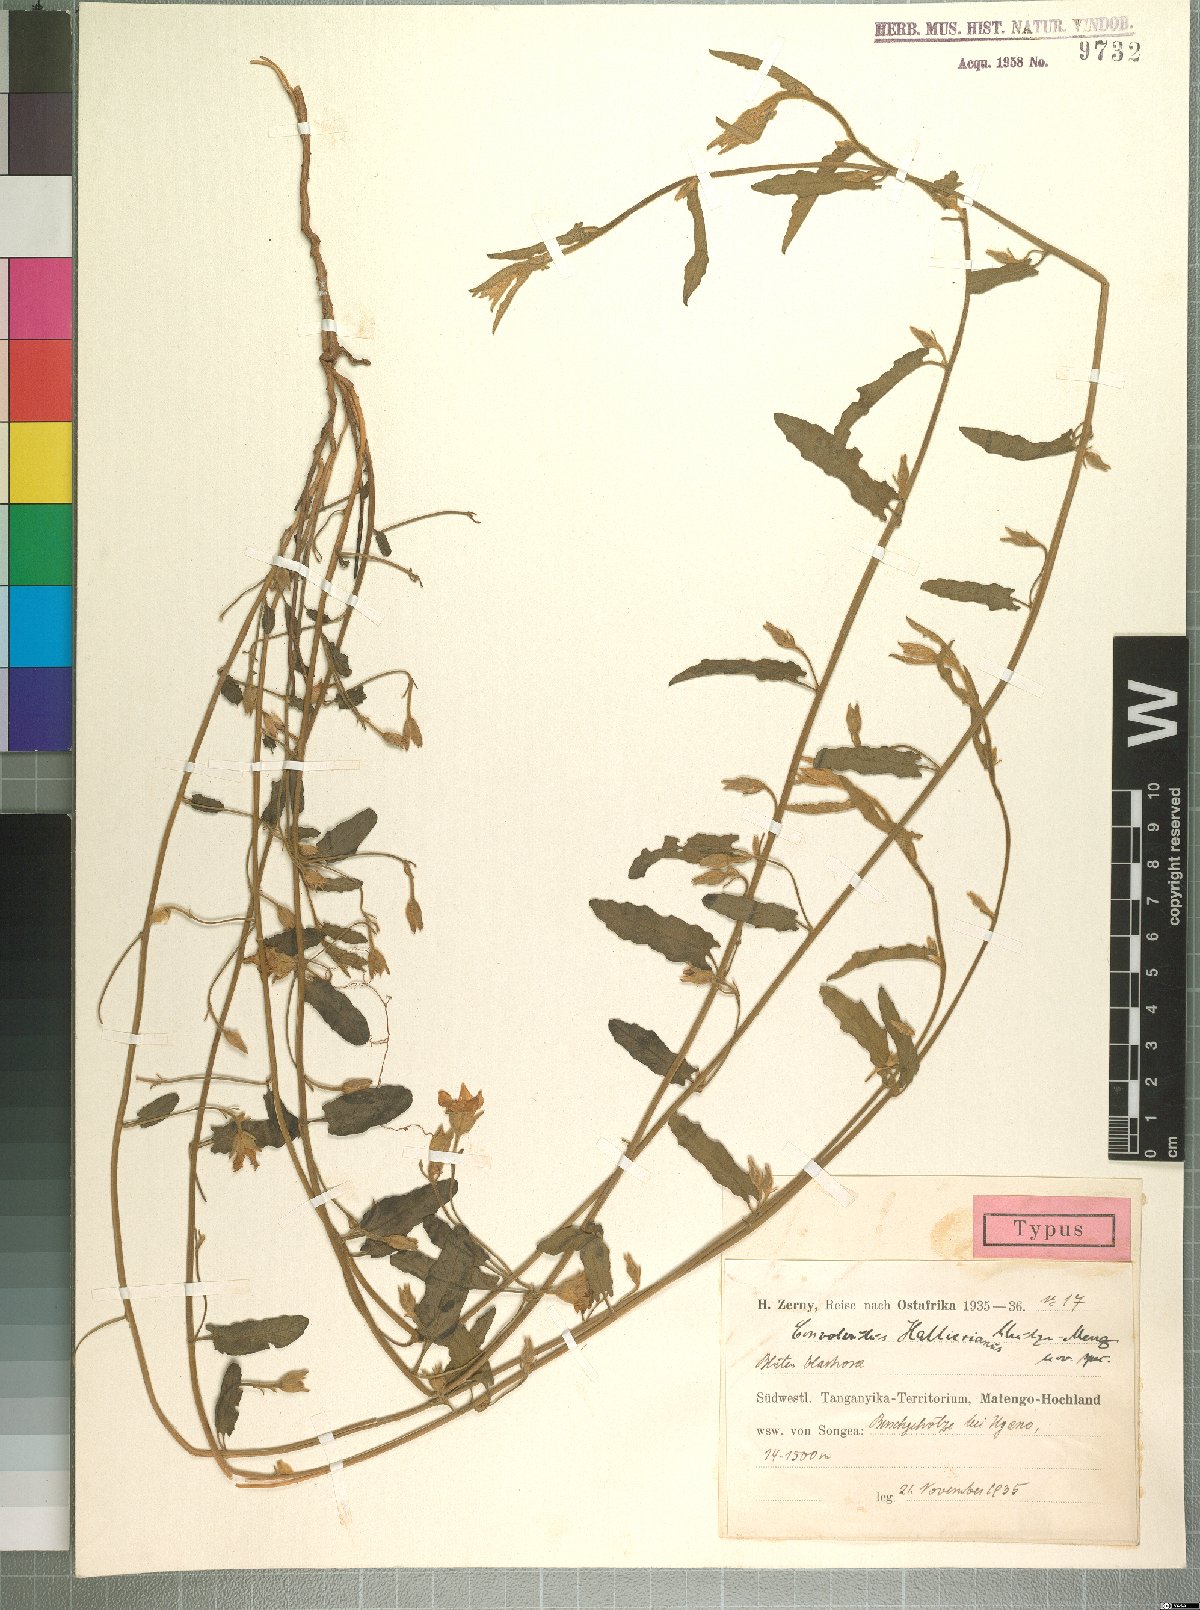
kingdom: Plantae
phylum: Tracheophyta
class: Magnoliopsida
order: Solanales
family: Convolvulaceae
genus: Convolvulus
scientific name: Convolvulus thomsonii
